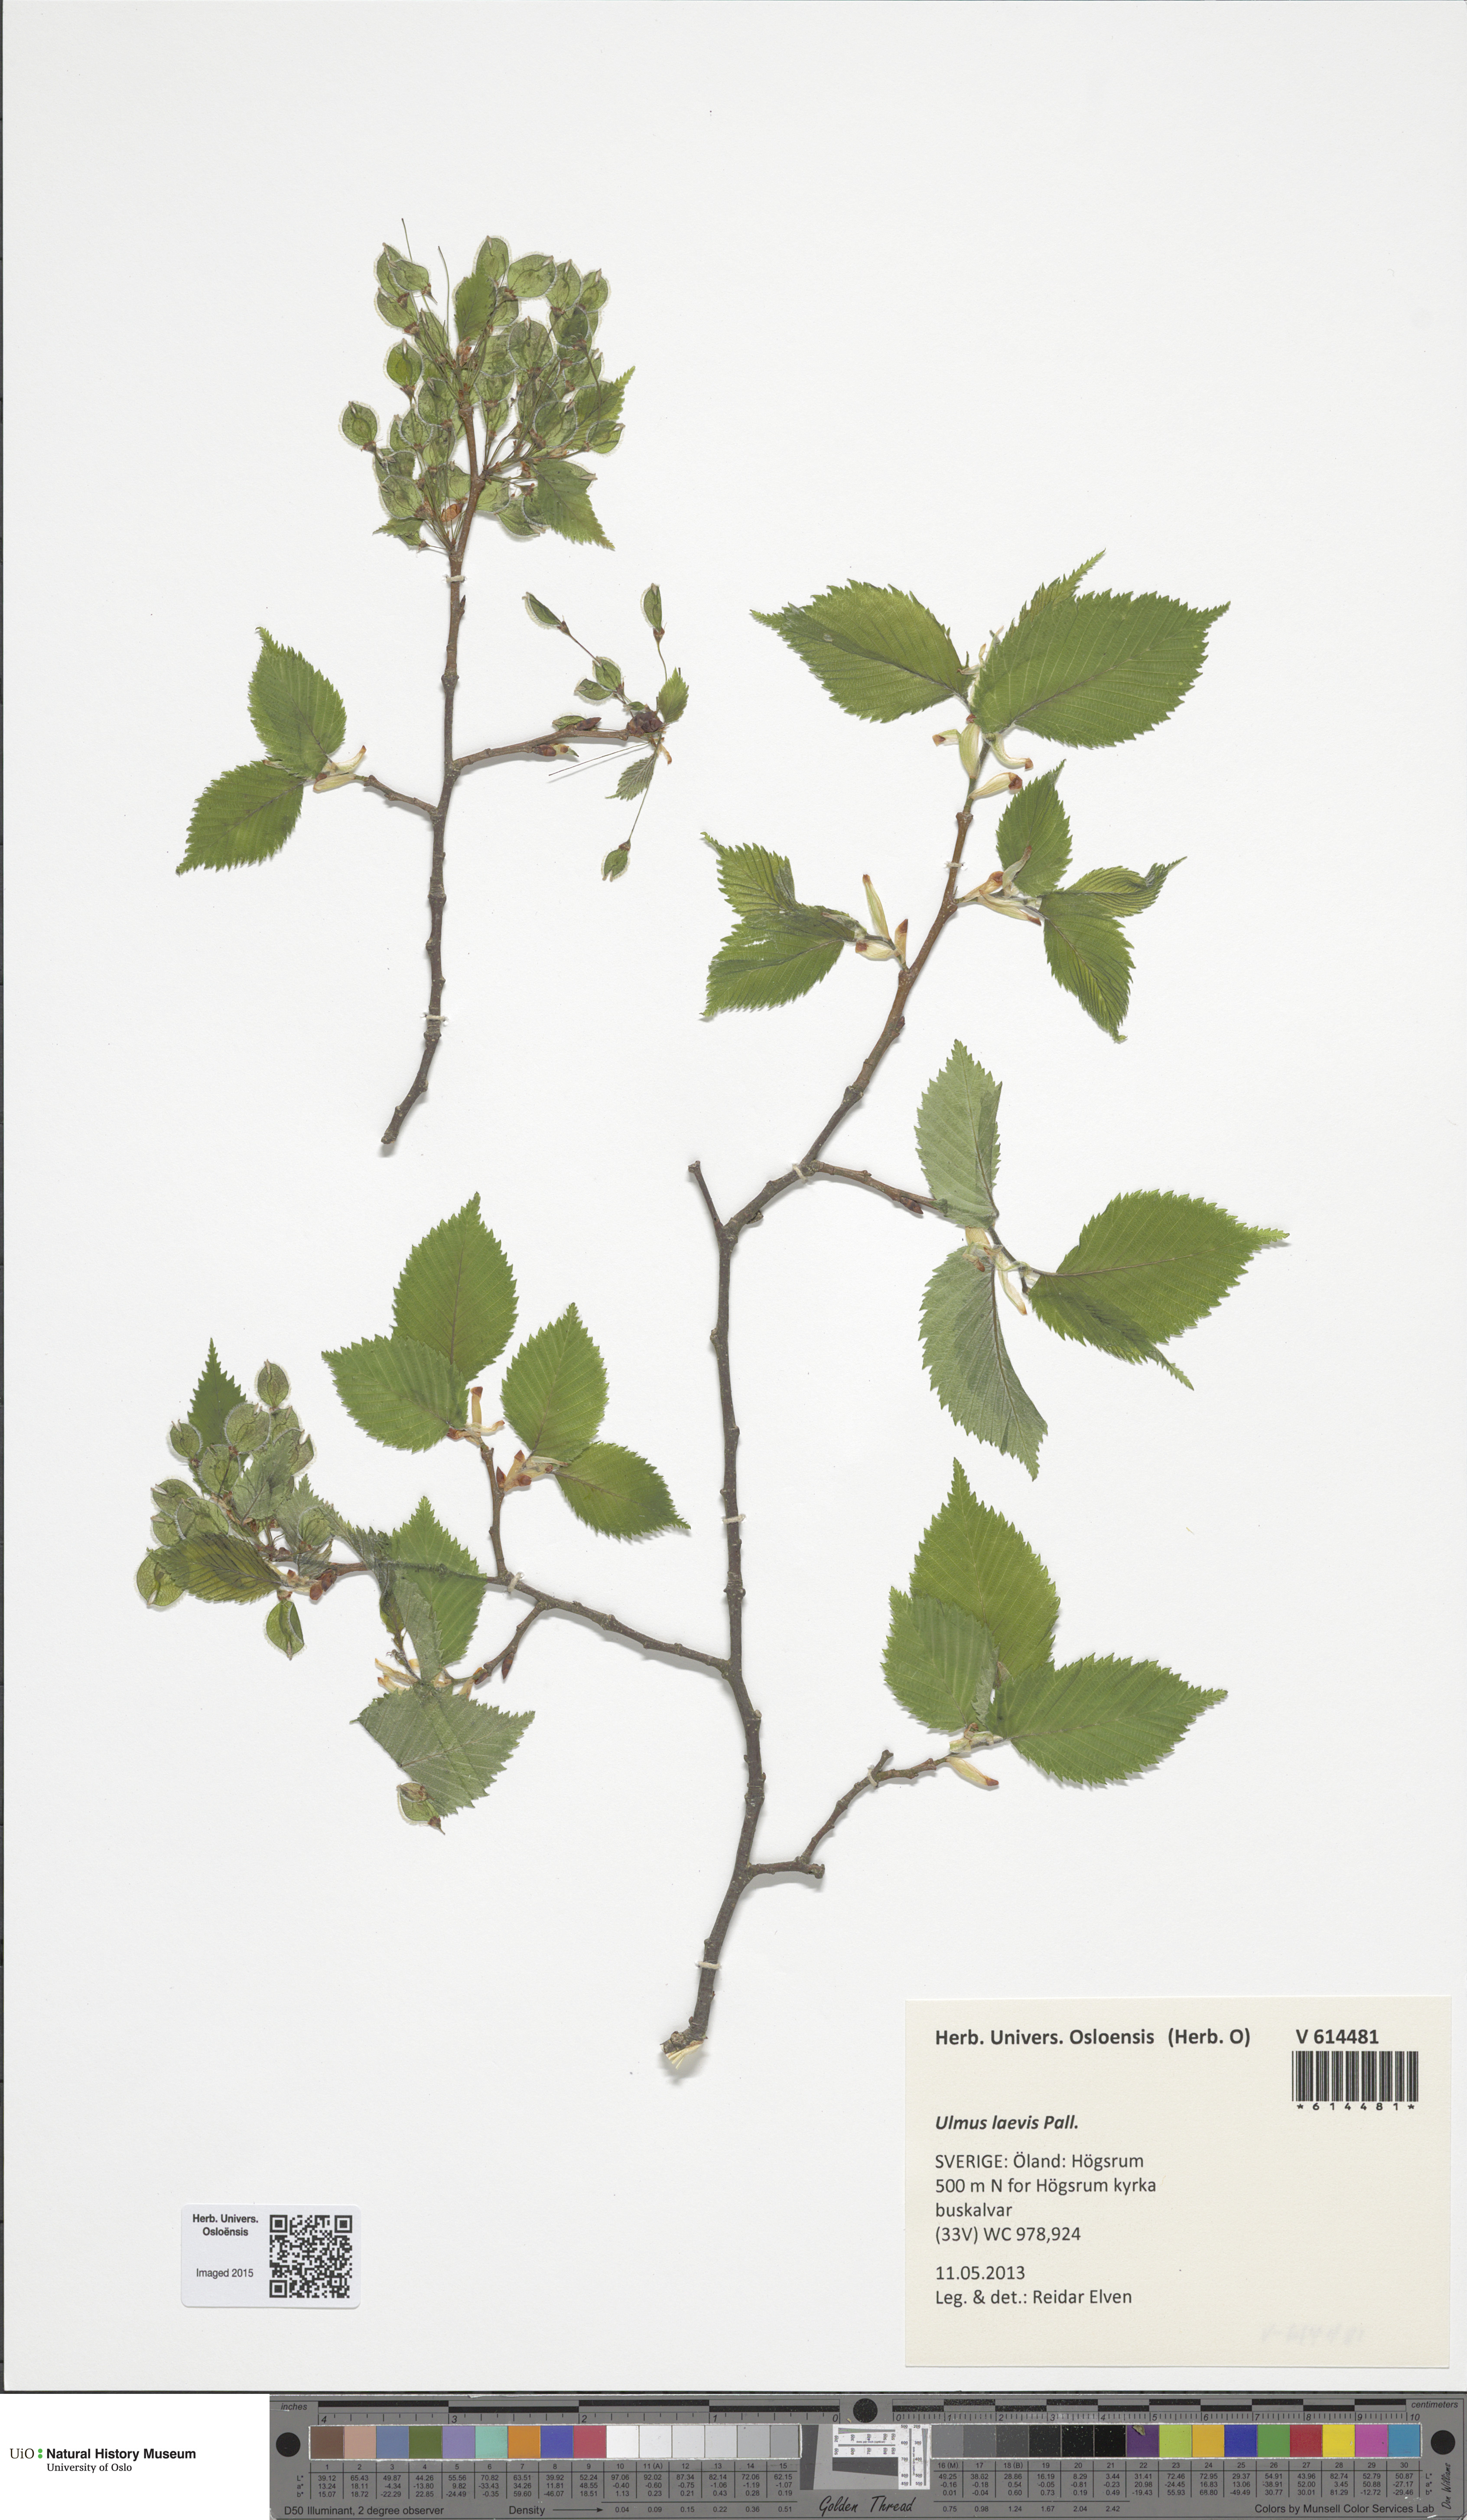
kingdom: Plantae
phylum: Tracheophyta
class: Magnoliopsida
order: Rosales
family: Ulmaceae
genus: Ulmus
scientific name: Ulmus laevis
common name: European white-elm
